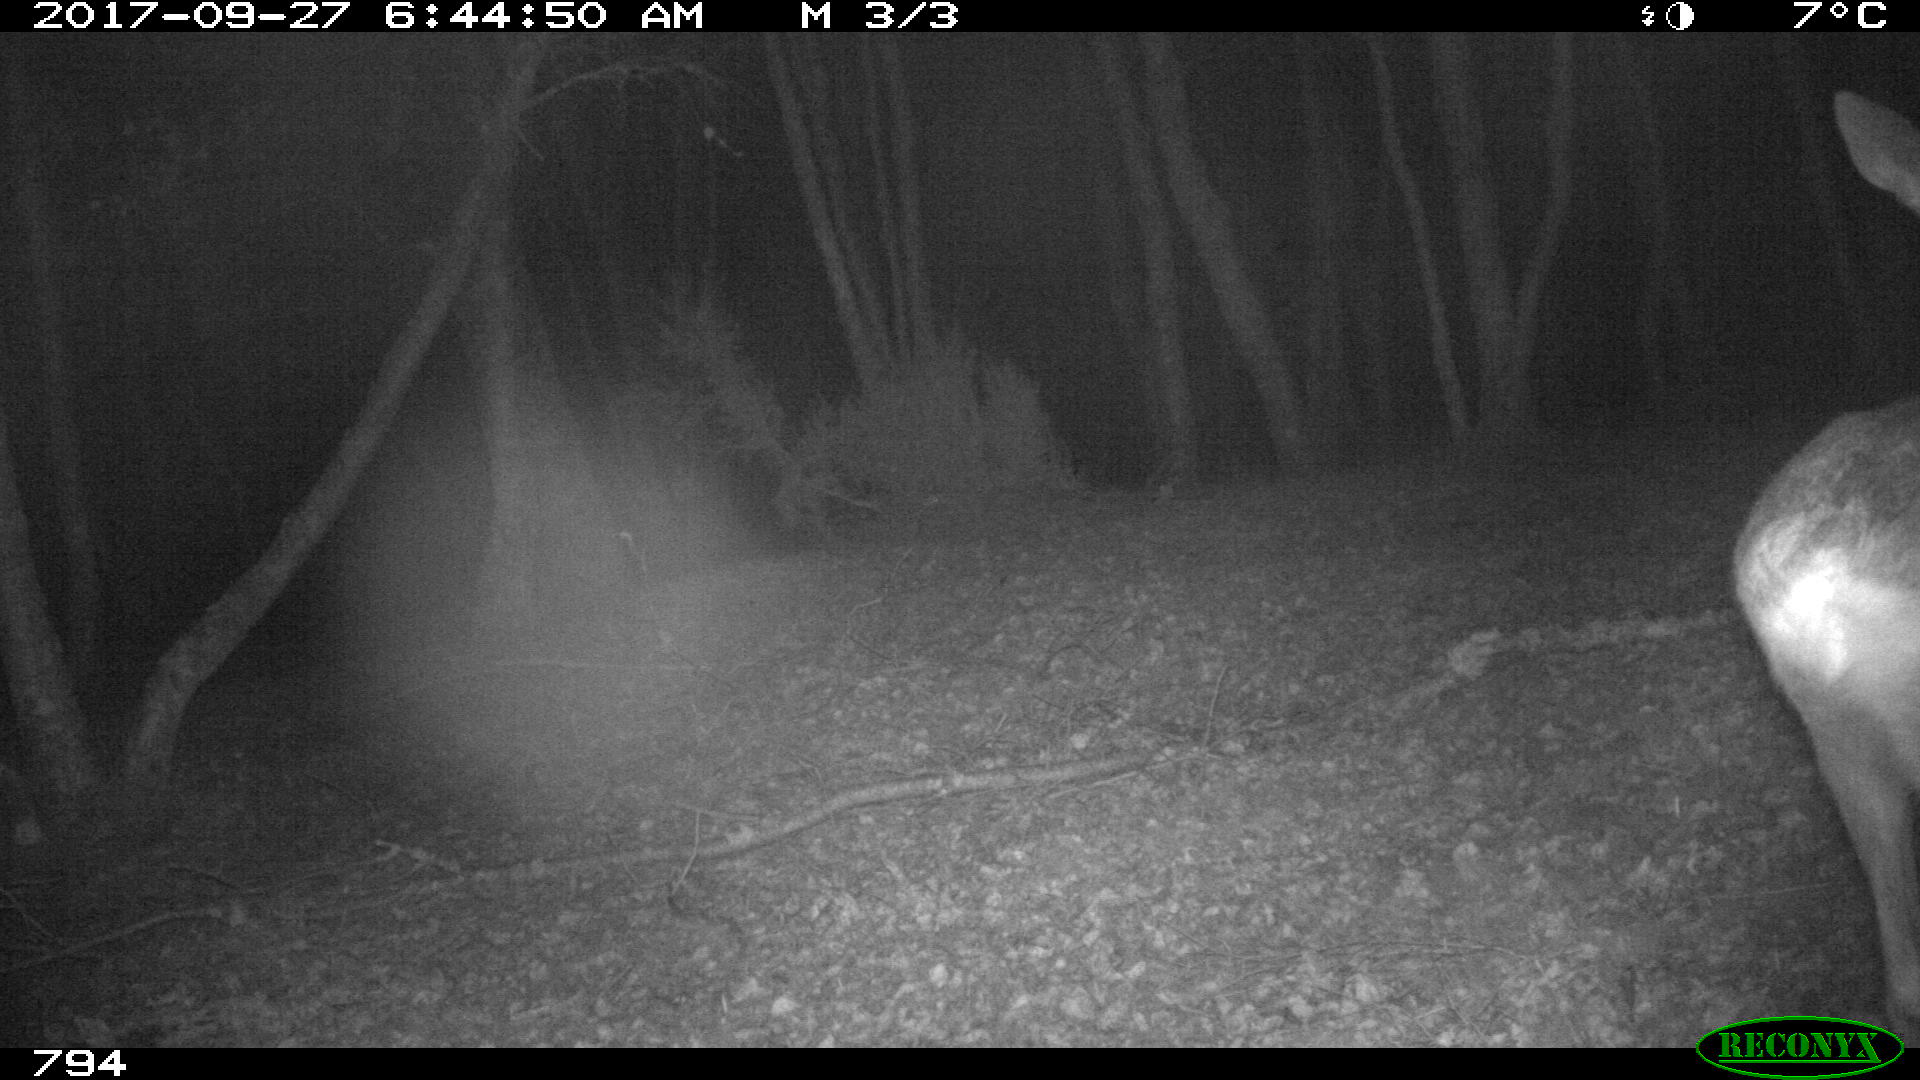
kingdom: Animalia
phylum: Chordata
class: Mammalia
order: Artiodactyla
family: Cervidae
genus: Capreolus
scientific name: Capreolus capreolus
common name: Western roe deer
